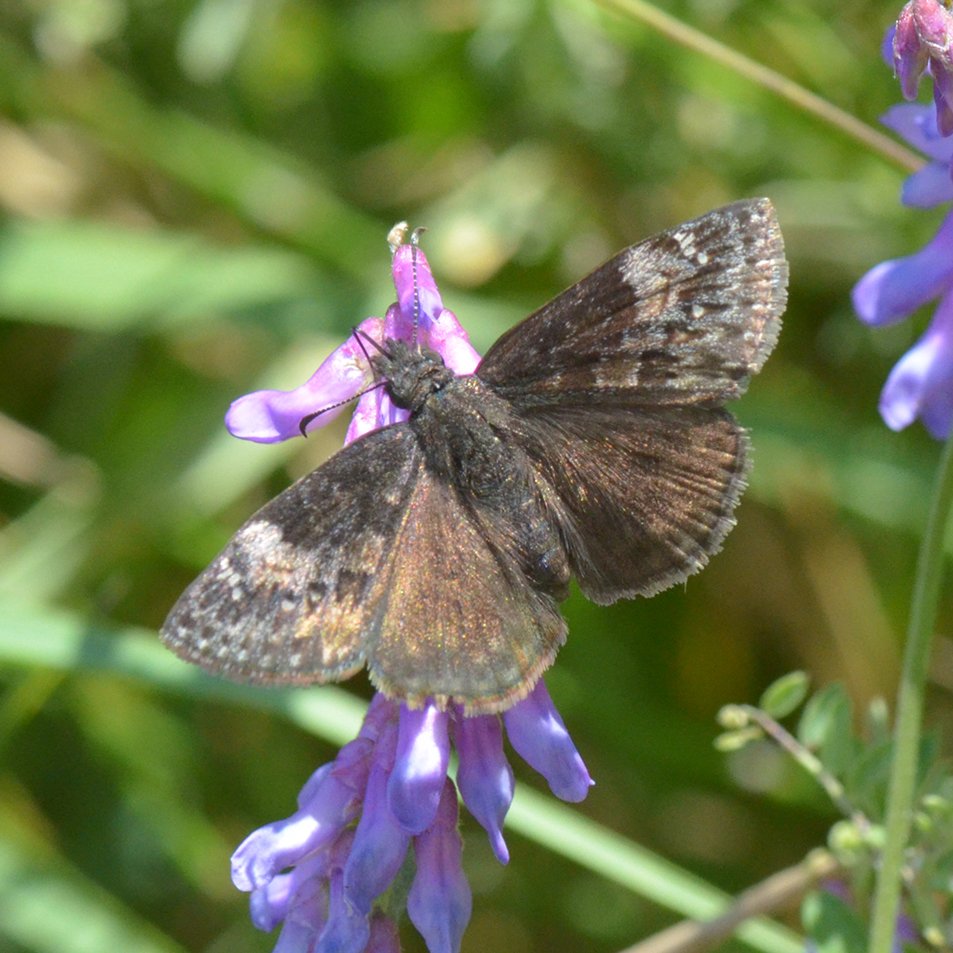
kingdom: Animalia
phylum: Arthropoda
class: Insecta
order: Lepidoptera
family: Hesperiidae
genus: Gesta
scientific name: Gesta
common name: Columbine Duskywing
